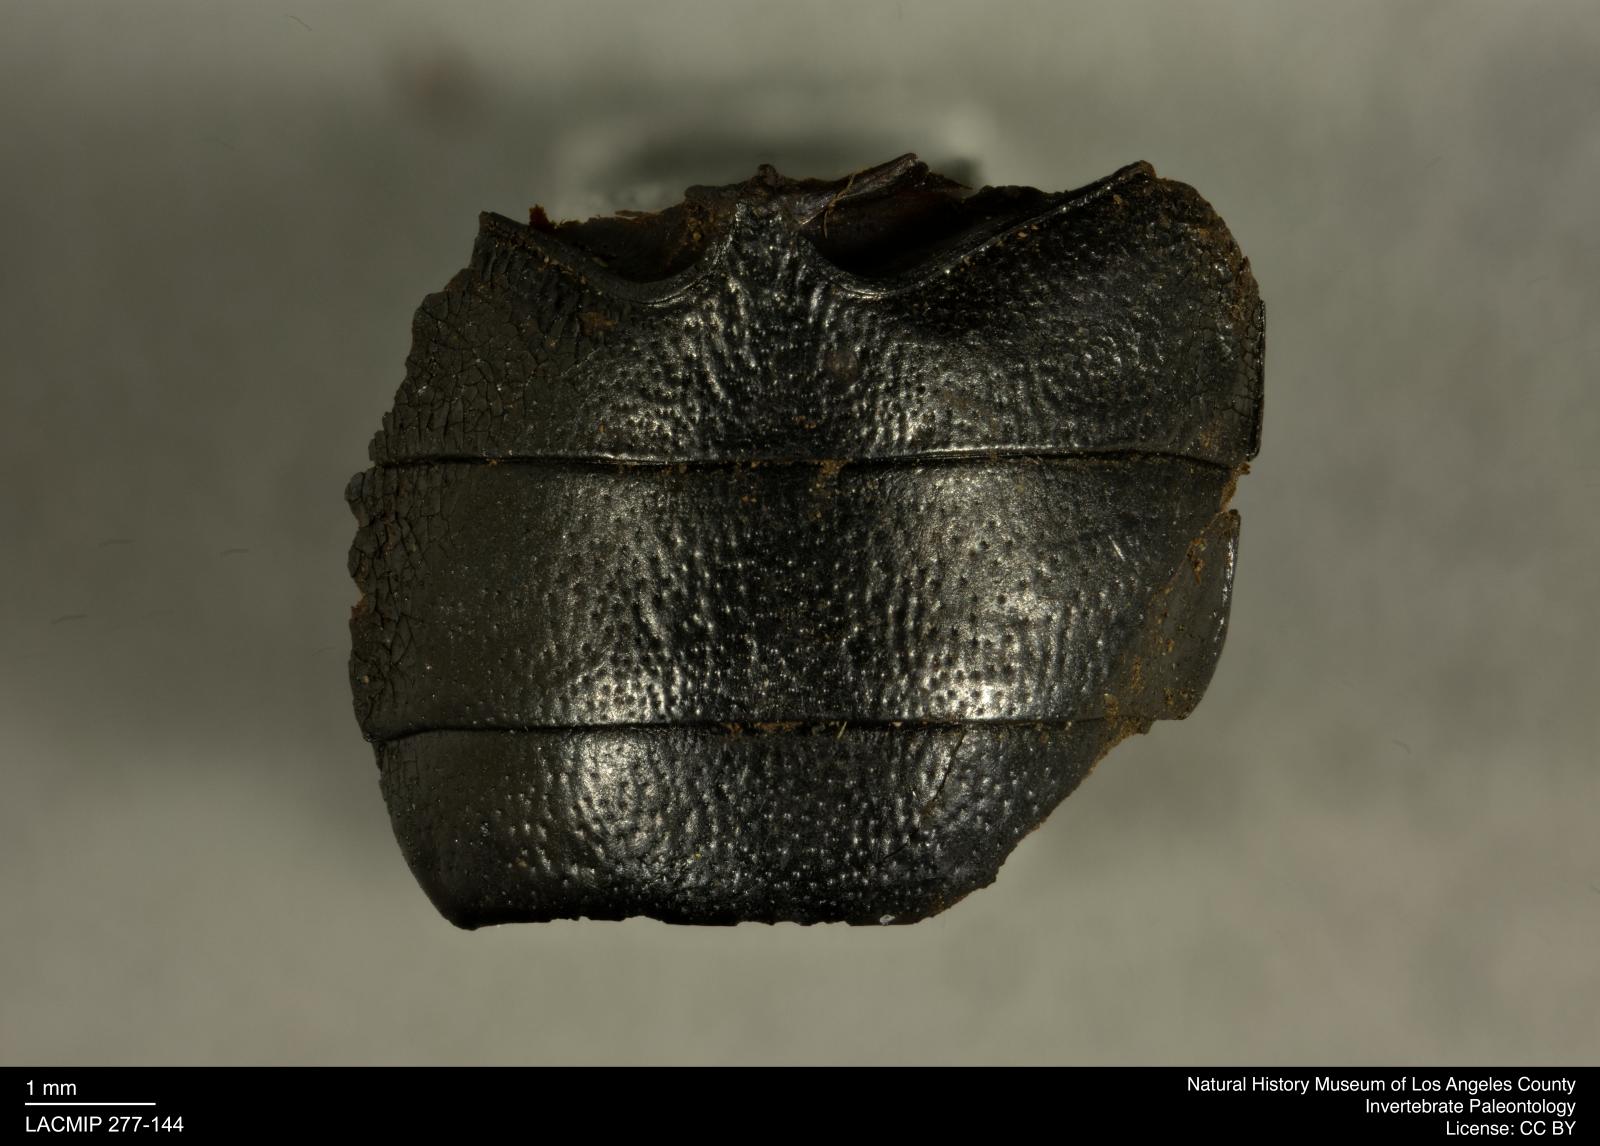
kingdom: Animalia
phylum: Arthropoda
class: Insecta
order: Coleoptera
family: Tenebrionidae
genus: Coniontis
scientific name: Coniontis abdominalis
